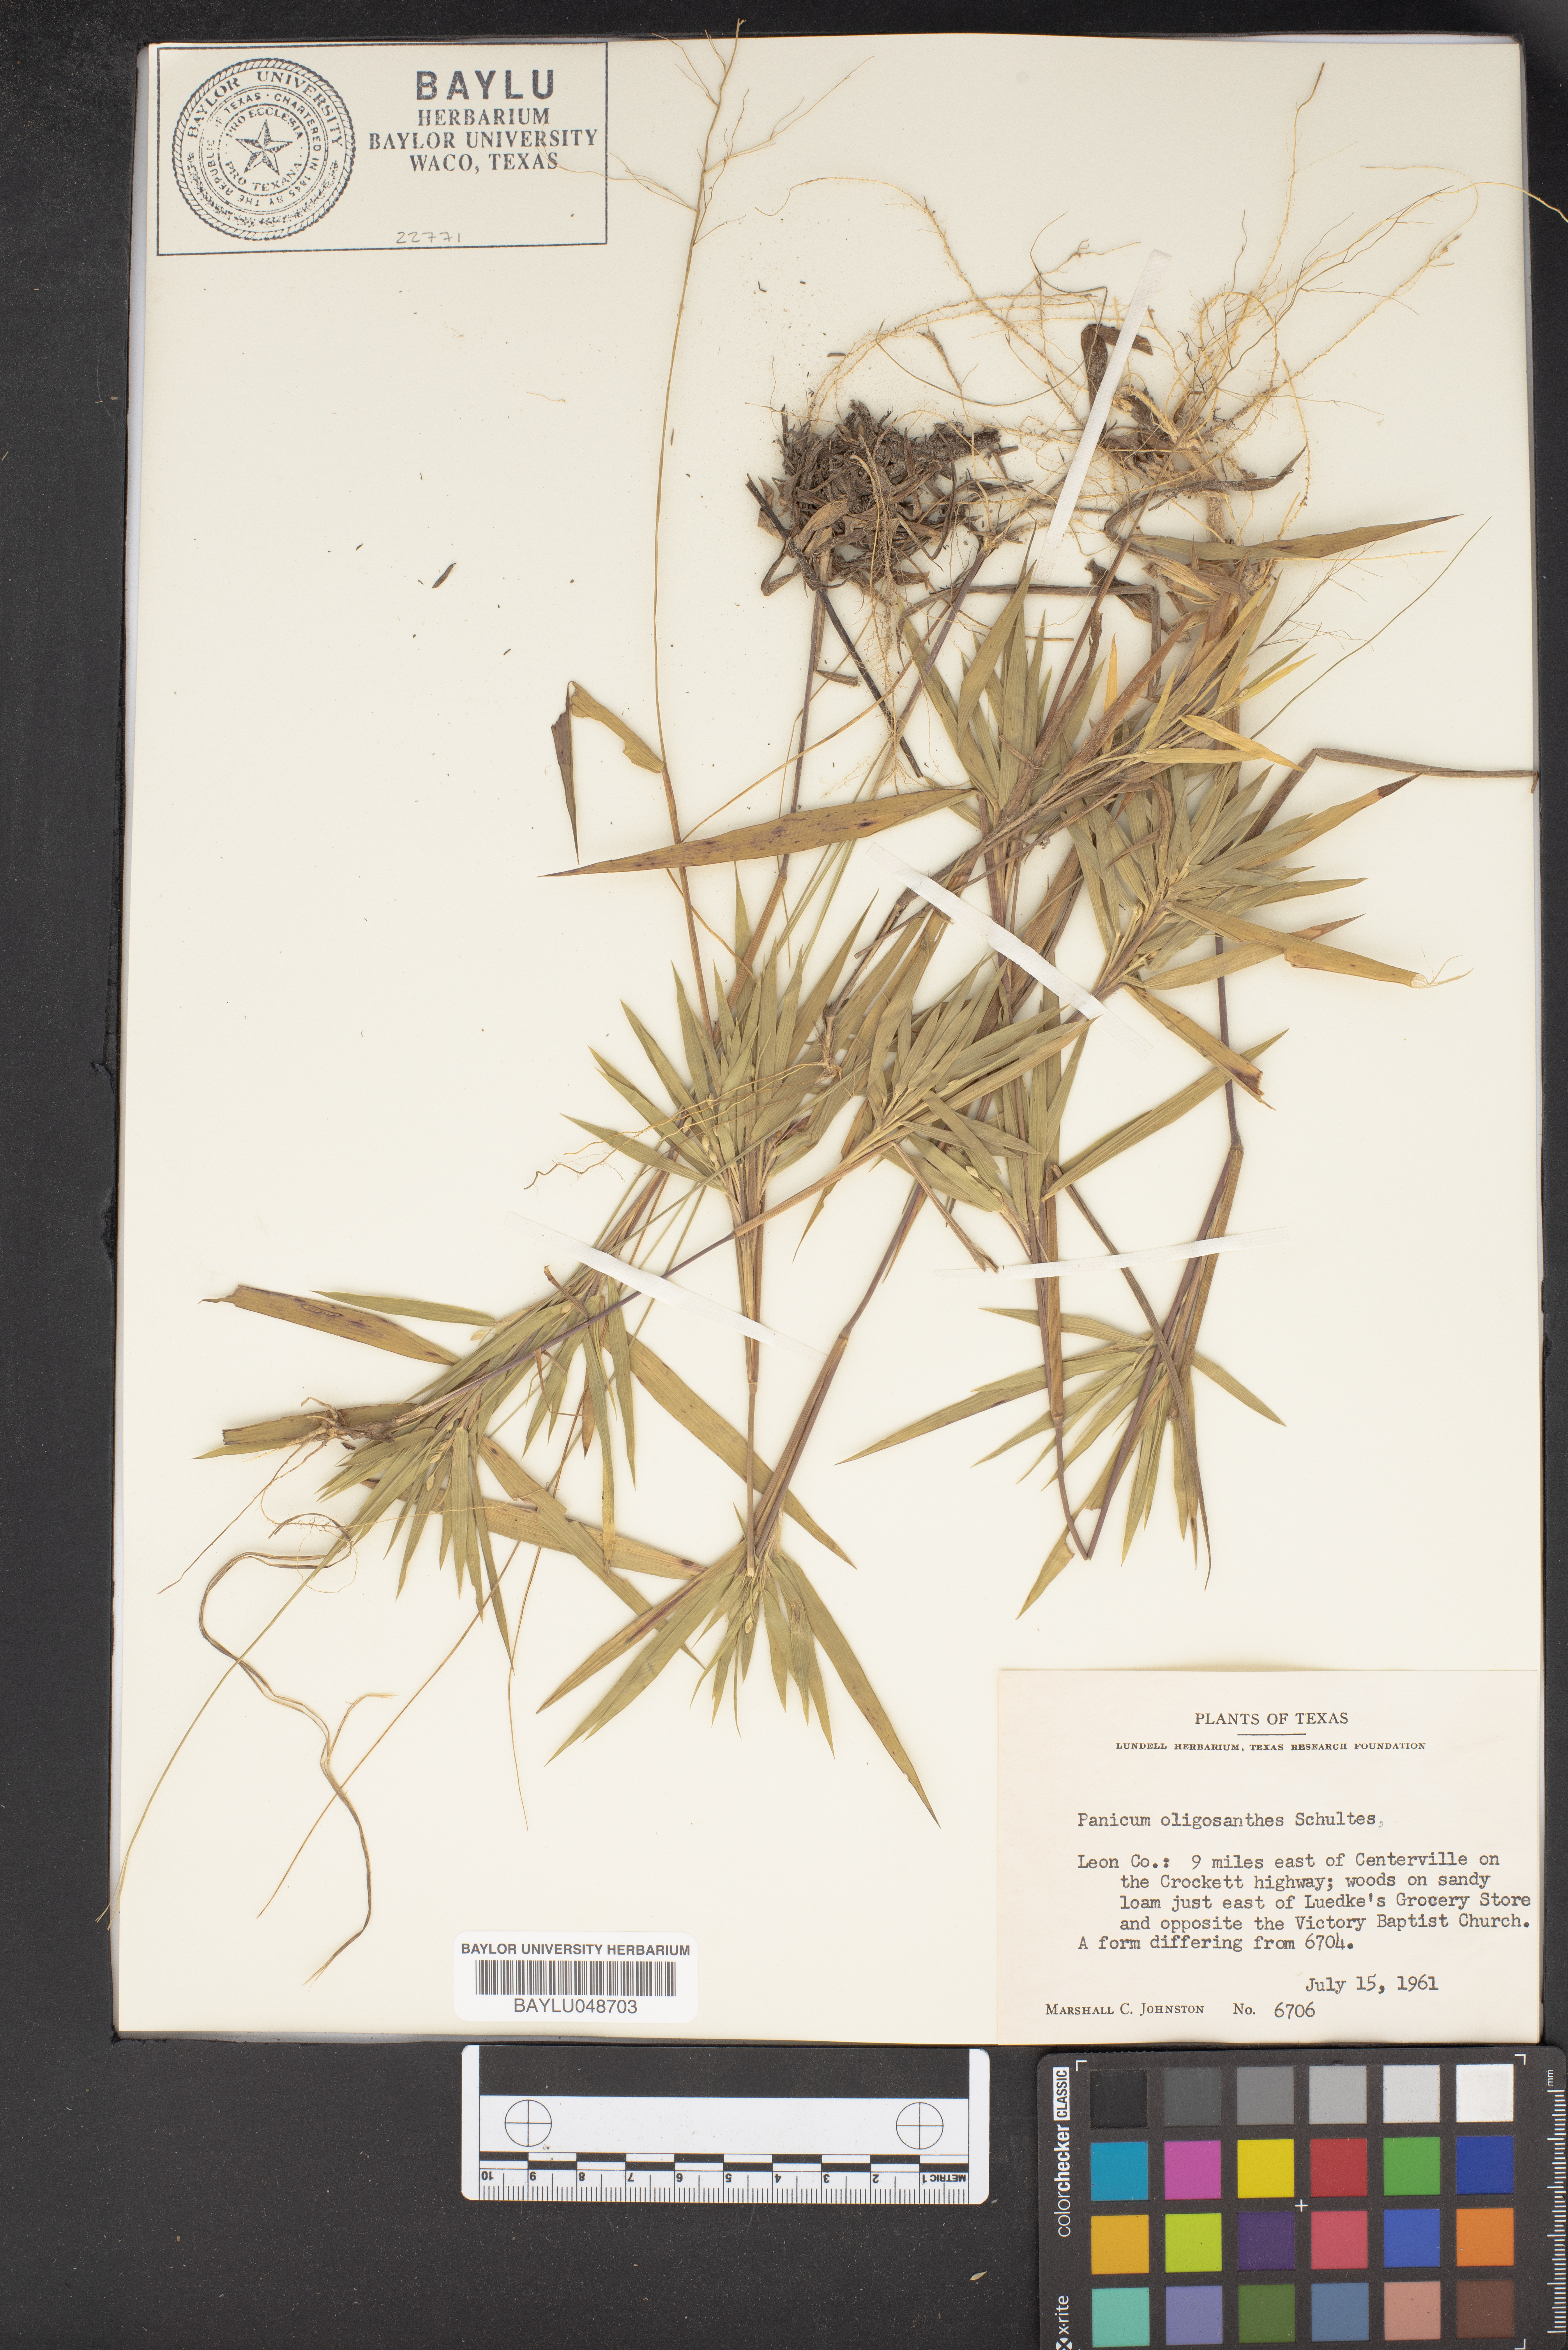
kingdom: Plantae
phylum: Tracheophyta
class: Liliopsida
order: Poales
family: Poaceae
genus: Dichanthelium
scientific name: Dichanthelium oligosanthes
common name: Few-anther obscuregrass
